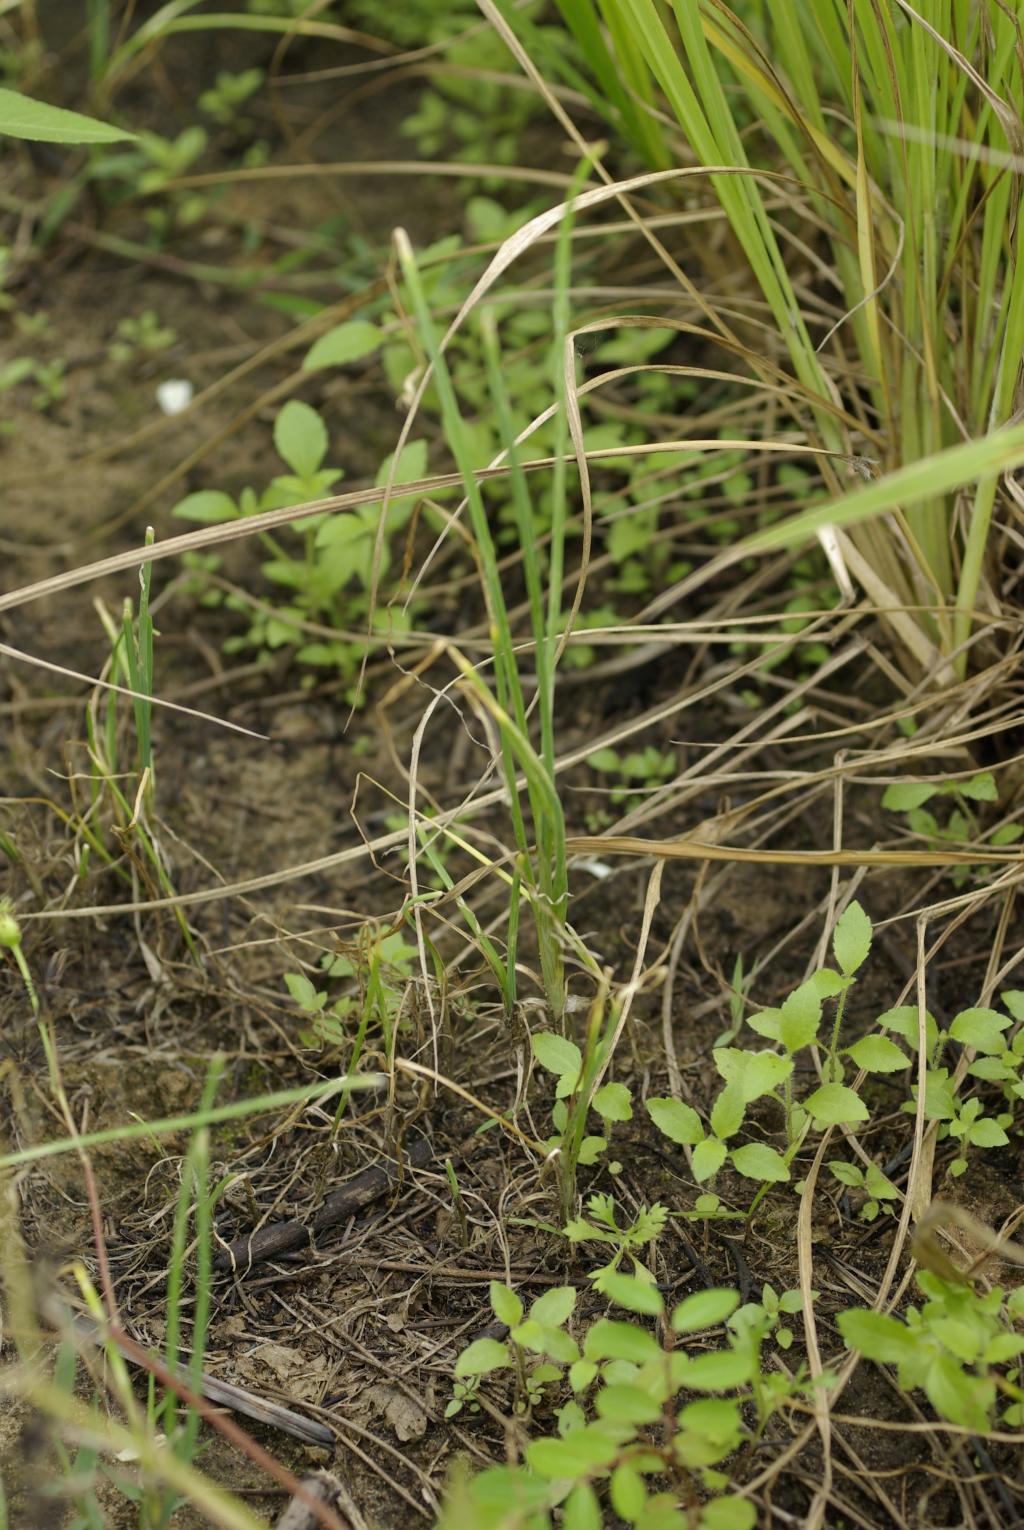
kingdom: Plantae
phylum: Tracheophyta
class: Liliopsida
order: Asparagales
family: Amaryllidaceae
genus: Allium
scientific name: Allium macrostemon
